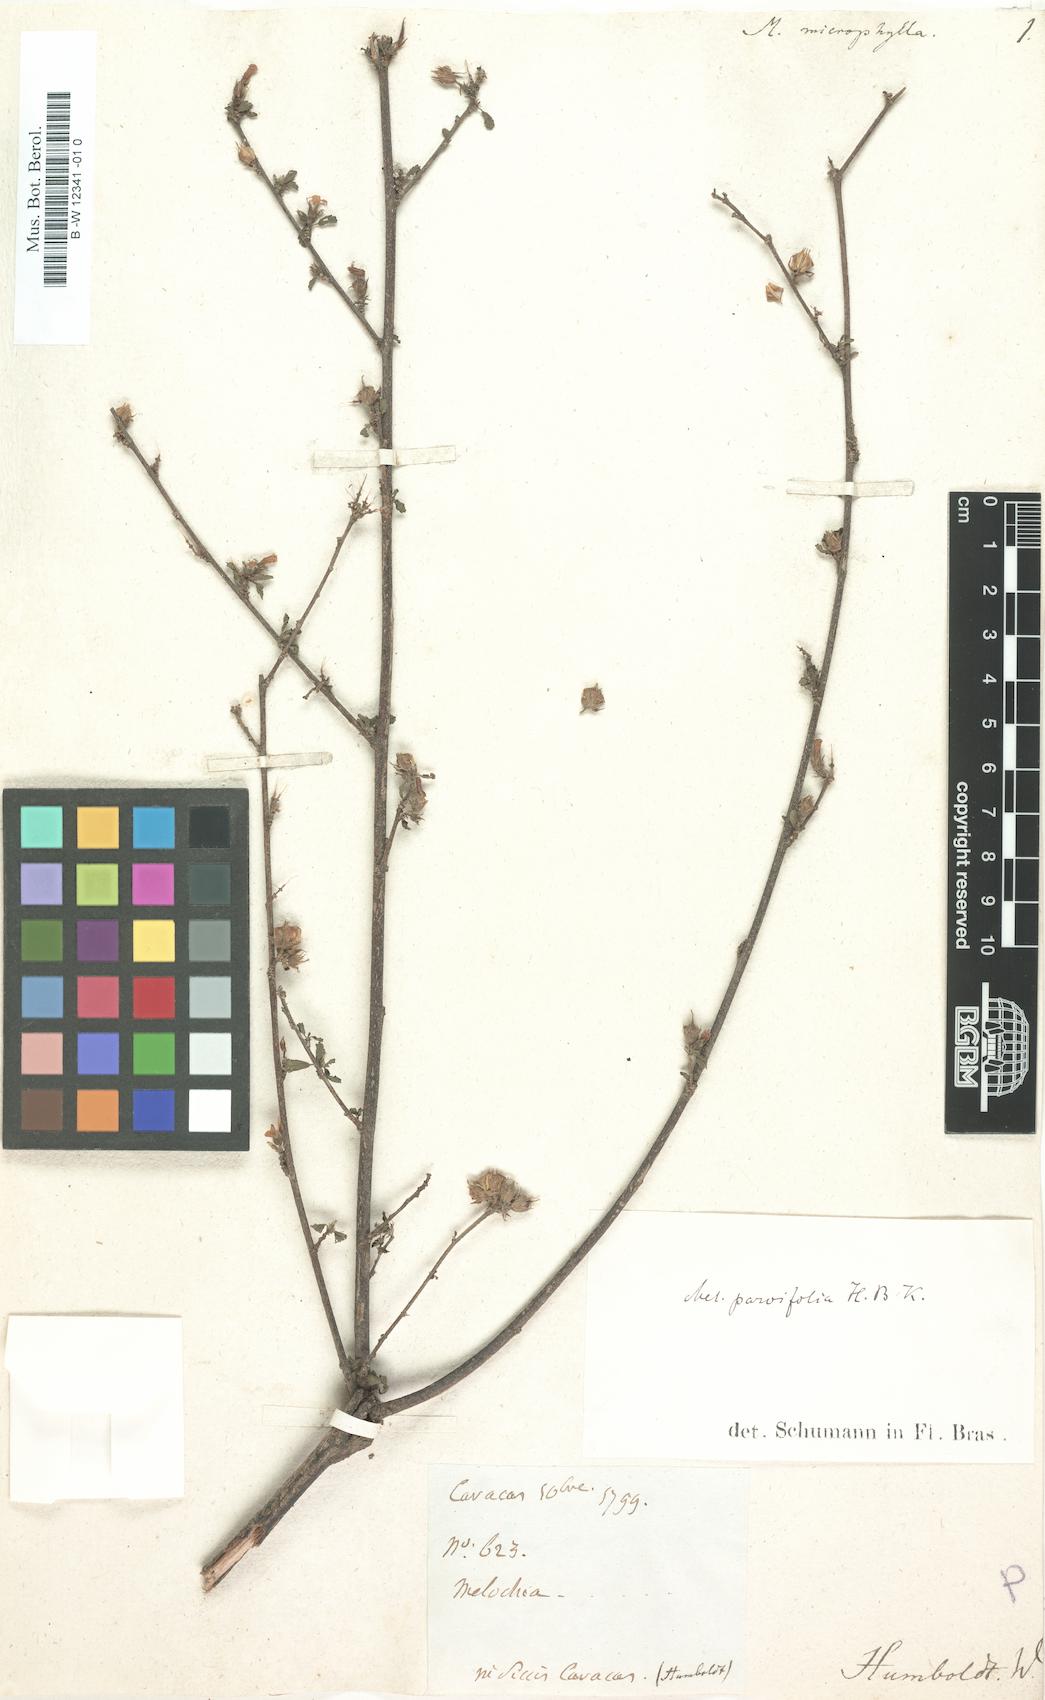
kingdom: Plantae
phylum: Tracheophyta
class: Magnoliopsida
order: Malvales
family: Malvaceae
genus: Melochia
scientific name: Melochia caracasana
